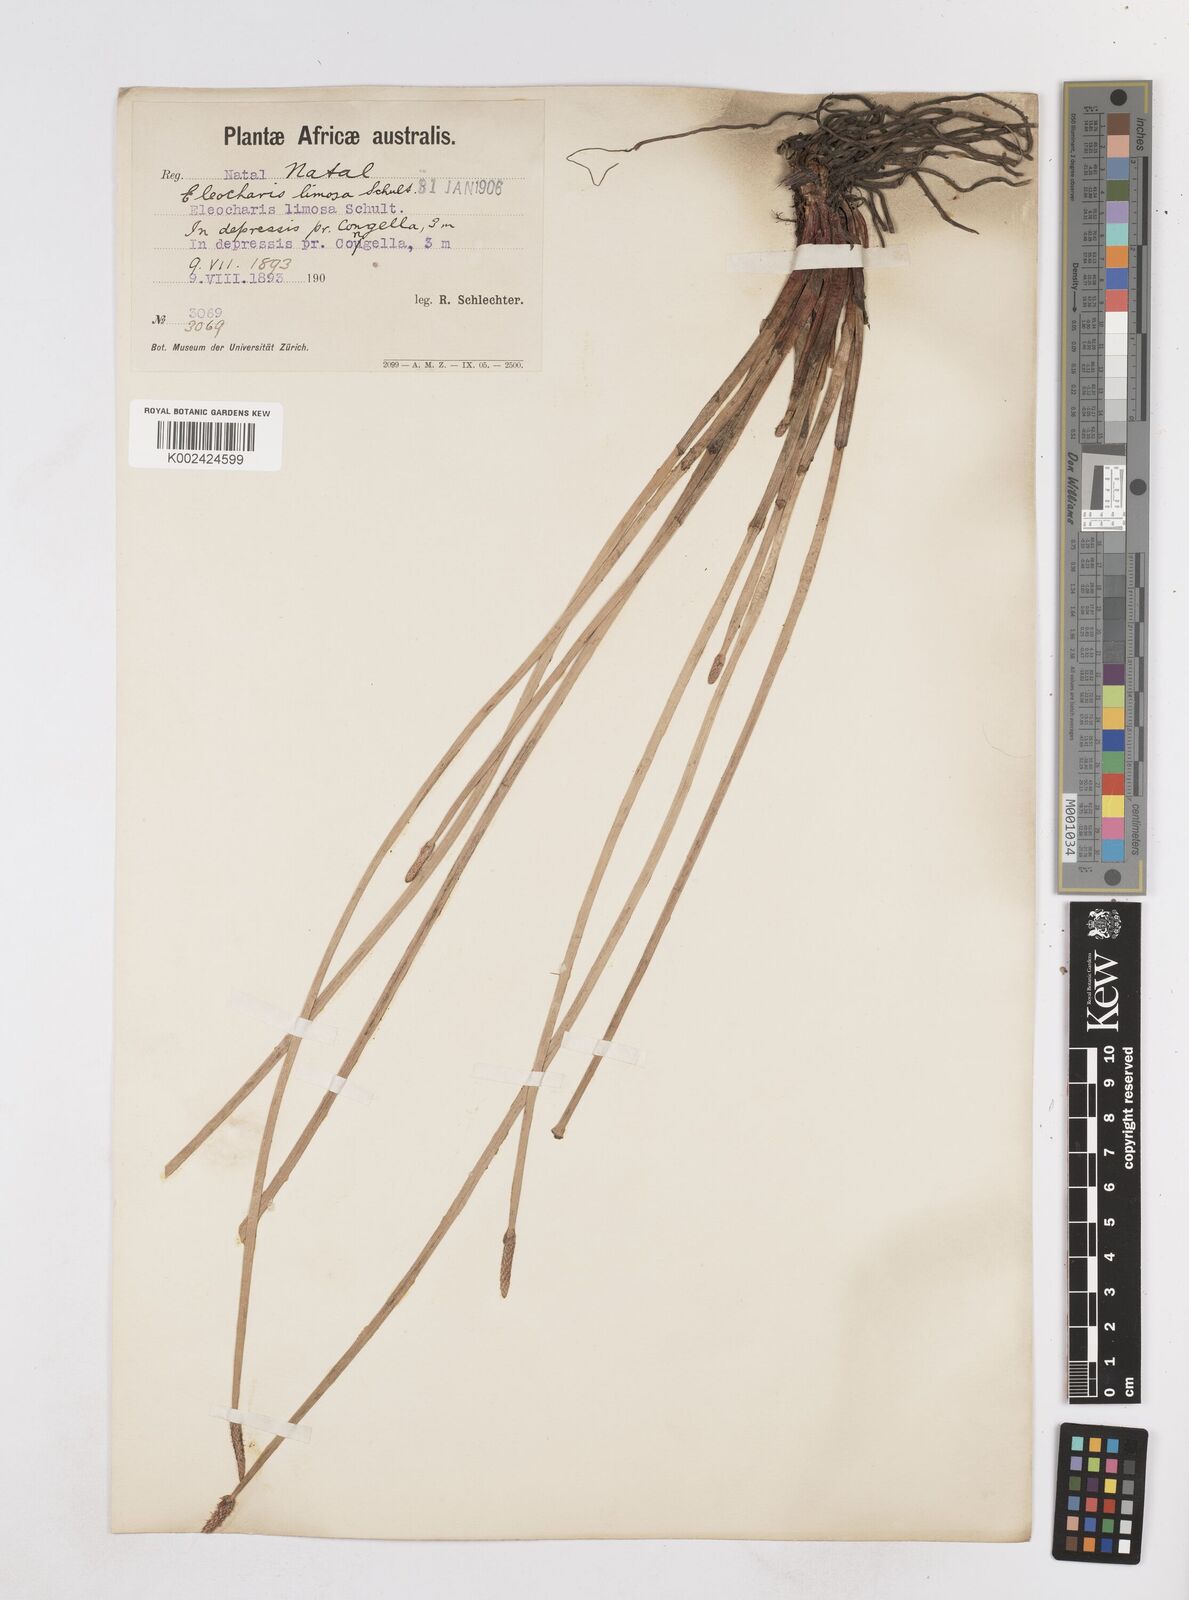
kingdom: Plantae
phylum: Tracheophyta
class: Liliopsida
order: Poales
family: Cyperaceae
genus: Eleocharis
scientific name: Eleocharis limosa
